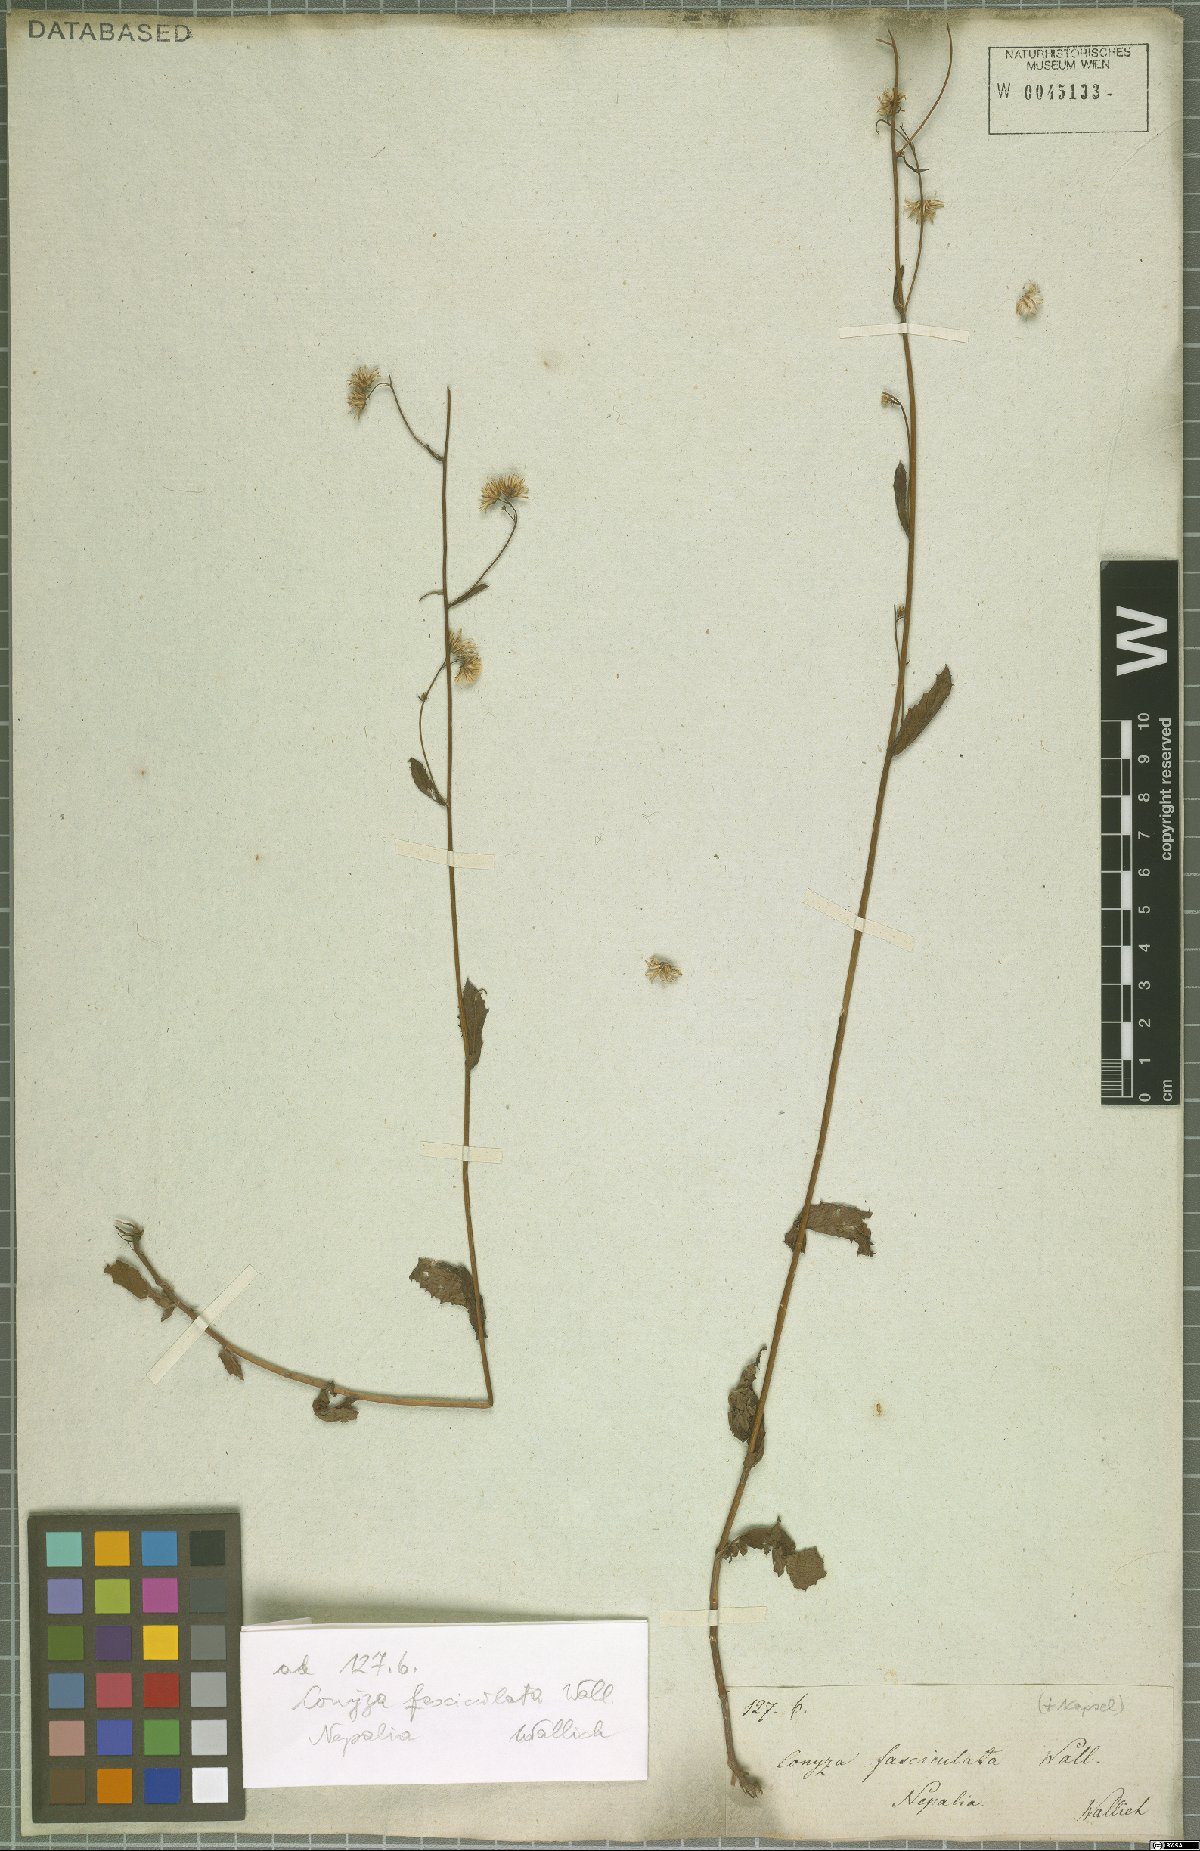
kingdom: Plantae
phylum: Tracheophyta
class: Magnoliopsida
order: Asterales
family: Asteraceae
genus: Blumea
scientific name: Blumea sessiliflora
